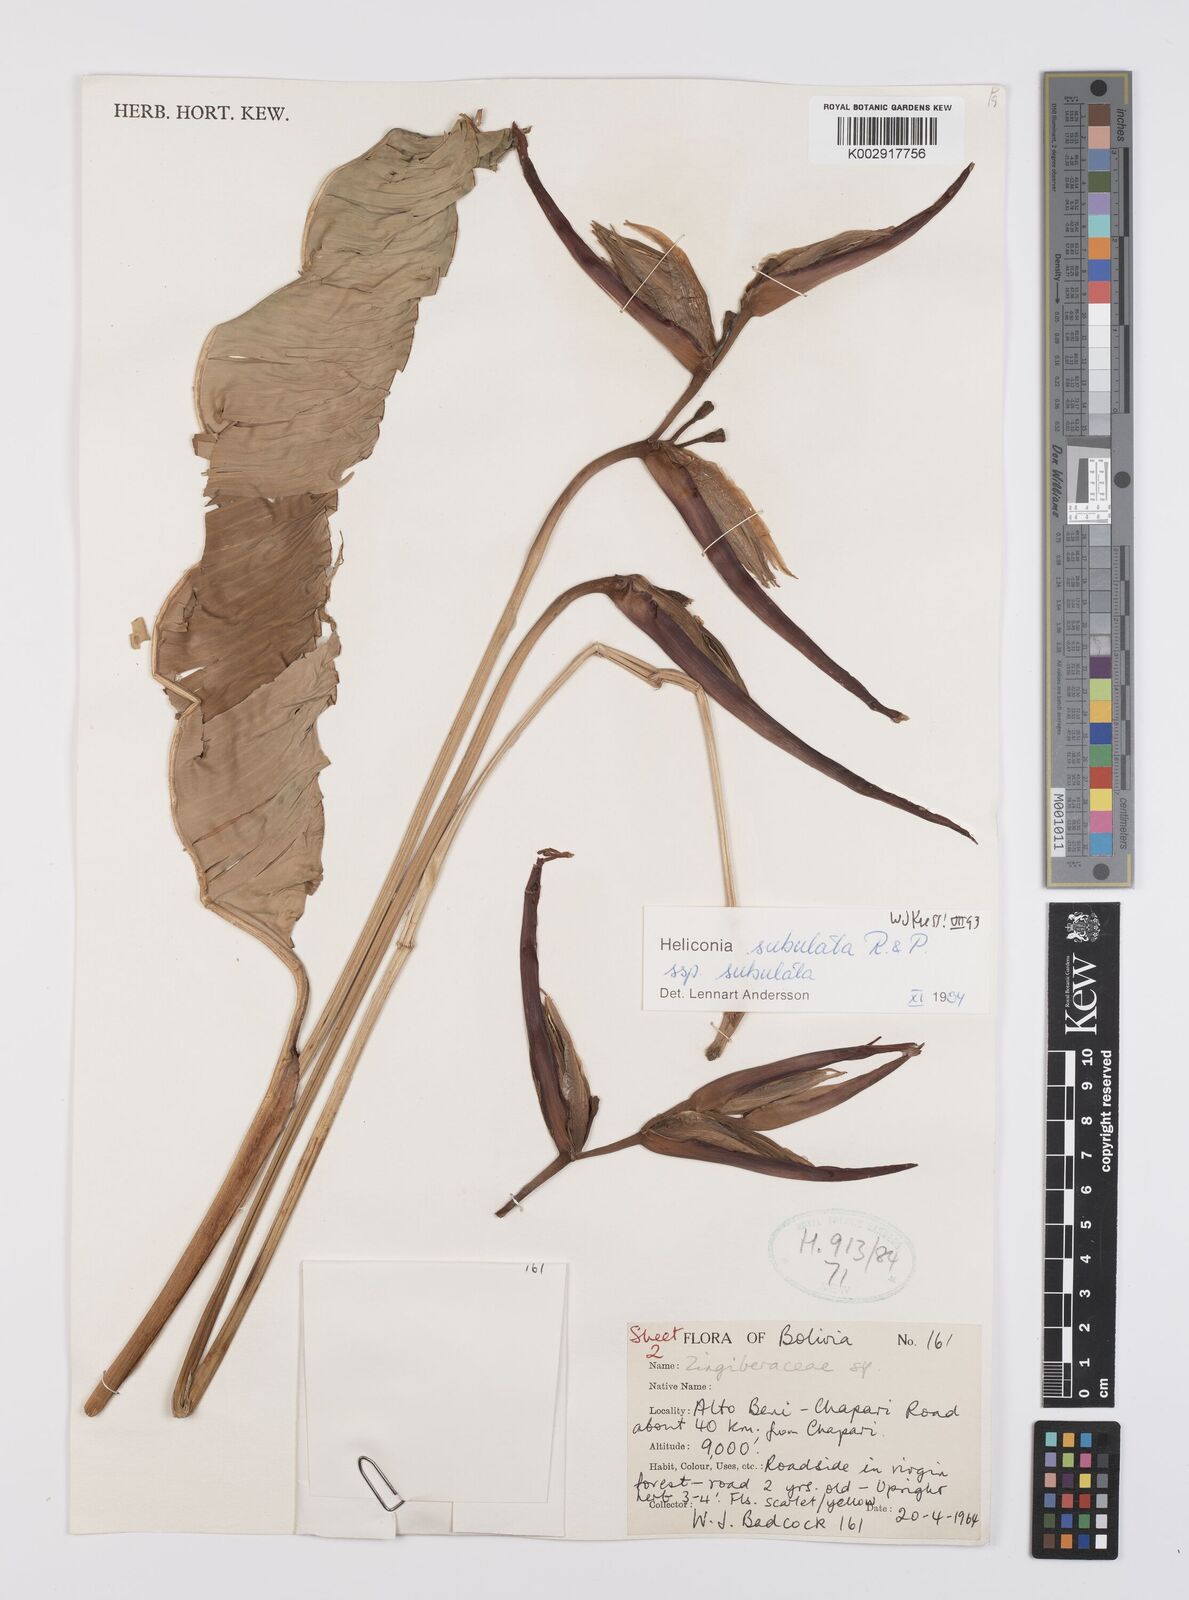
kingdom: Plantae
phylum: Tracheophyta
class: Liliopsida
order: Zingiberales
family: Heliconiaceae
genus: Heliconia
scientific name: Heliconia subulata
